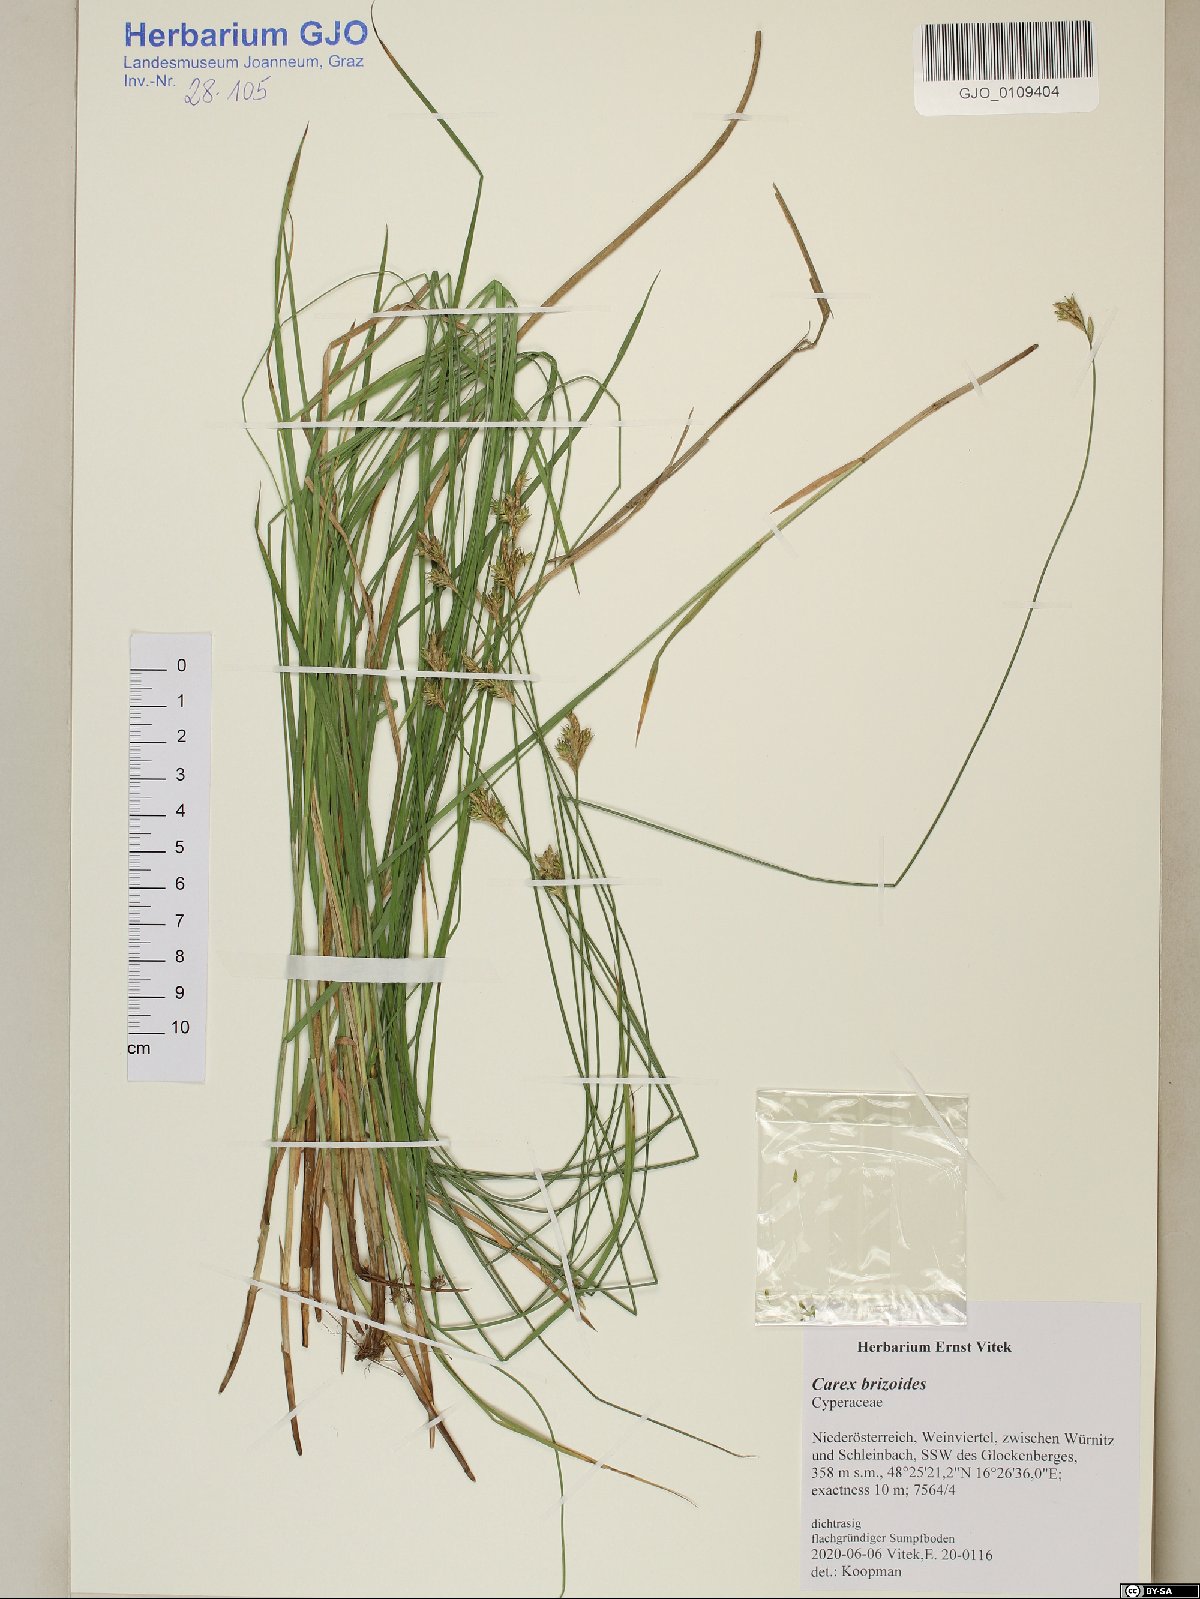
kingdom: Plantae
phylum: Tracheophyta
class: Liliopsida
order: Poales
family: Cyperaceae
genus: Carex
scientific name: Carex brizoides
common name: Quaking-grass sedge
